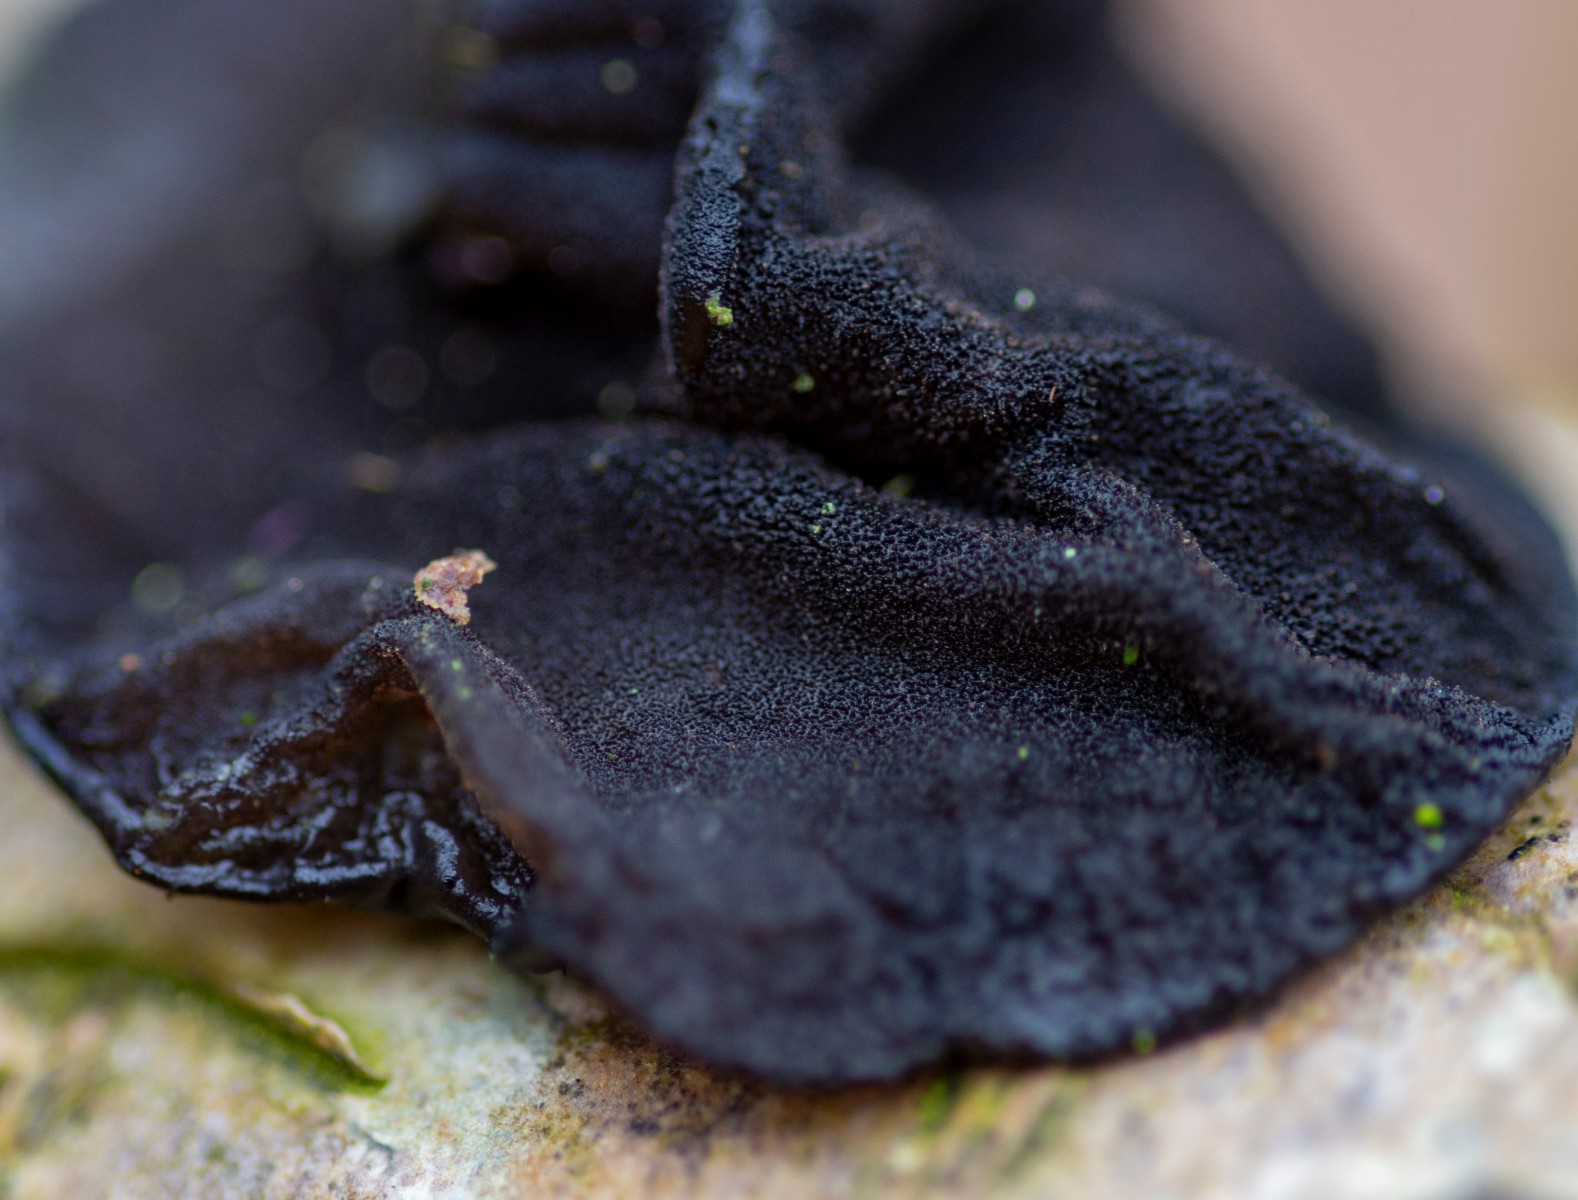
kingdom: Fungi
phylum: Basidiomycota
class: Agaricomycetes
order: Auriculariales
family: Auriculariaceae
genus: Exidia
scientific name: Exidia glandulosa
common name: ege-bævretop
